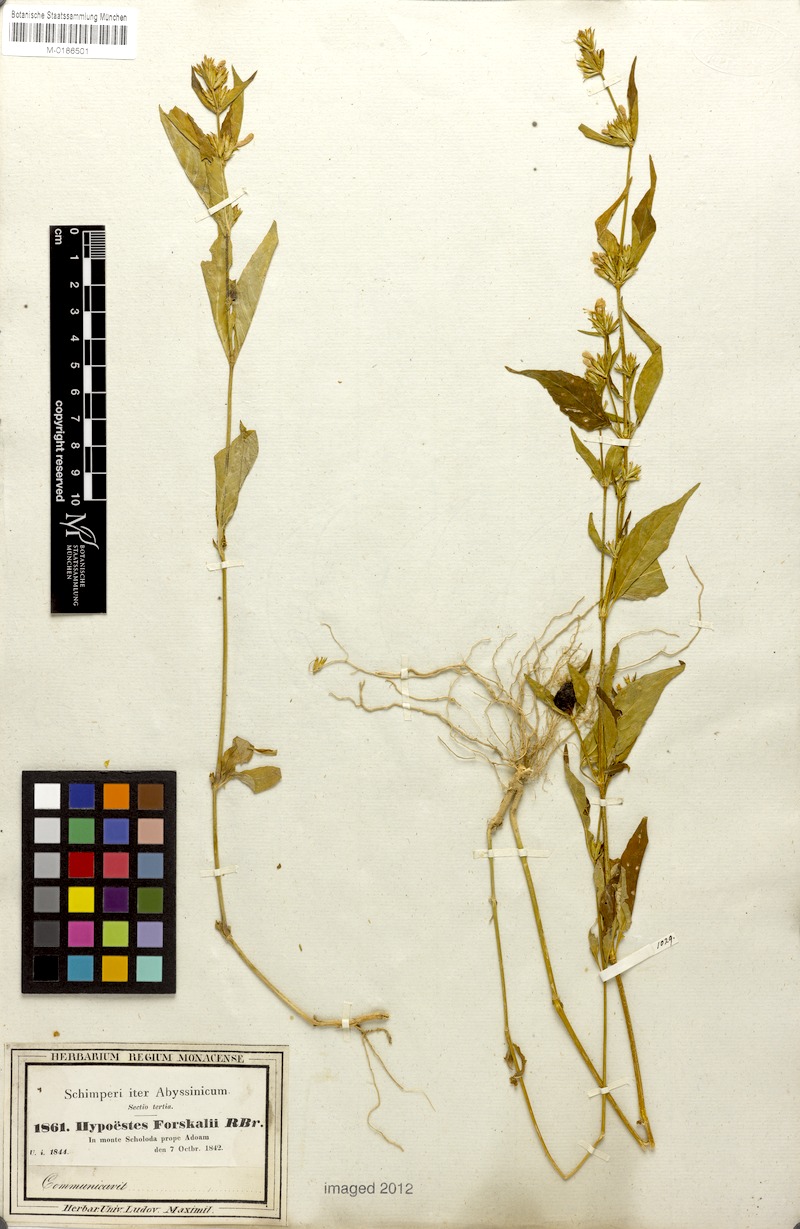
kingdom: Plantae
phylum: Tracheophyta
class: Magnoliopsida
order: Lamiales
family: Acanthaceae
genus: Hypoestes
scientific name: Hypoestes aristata
